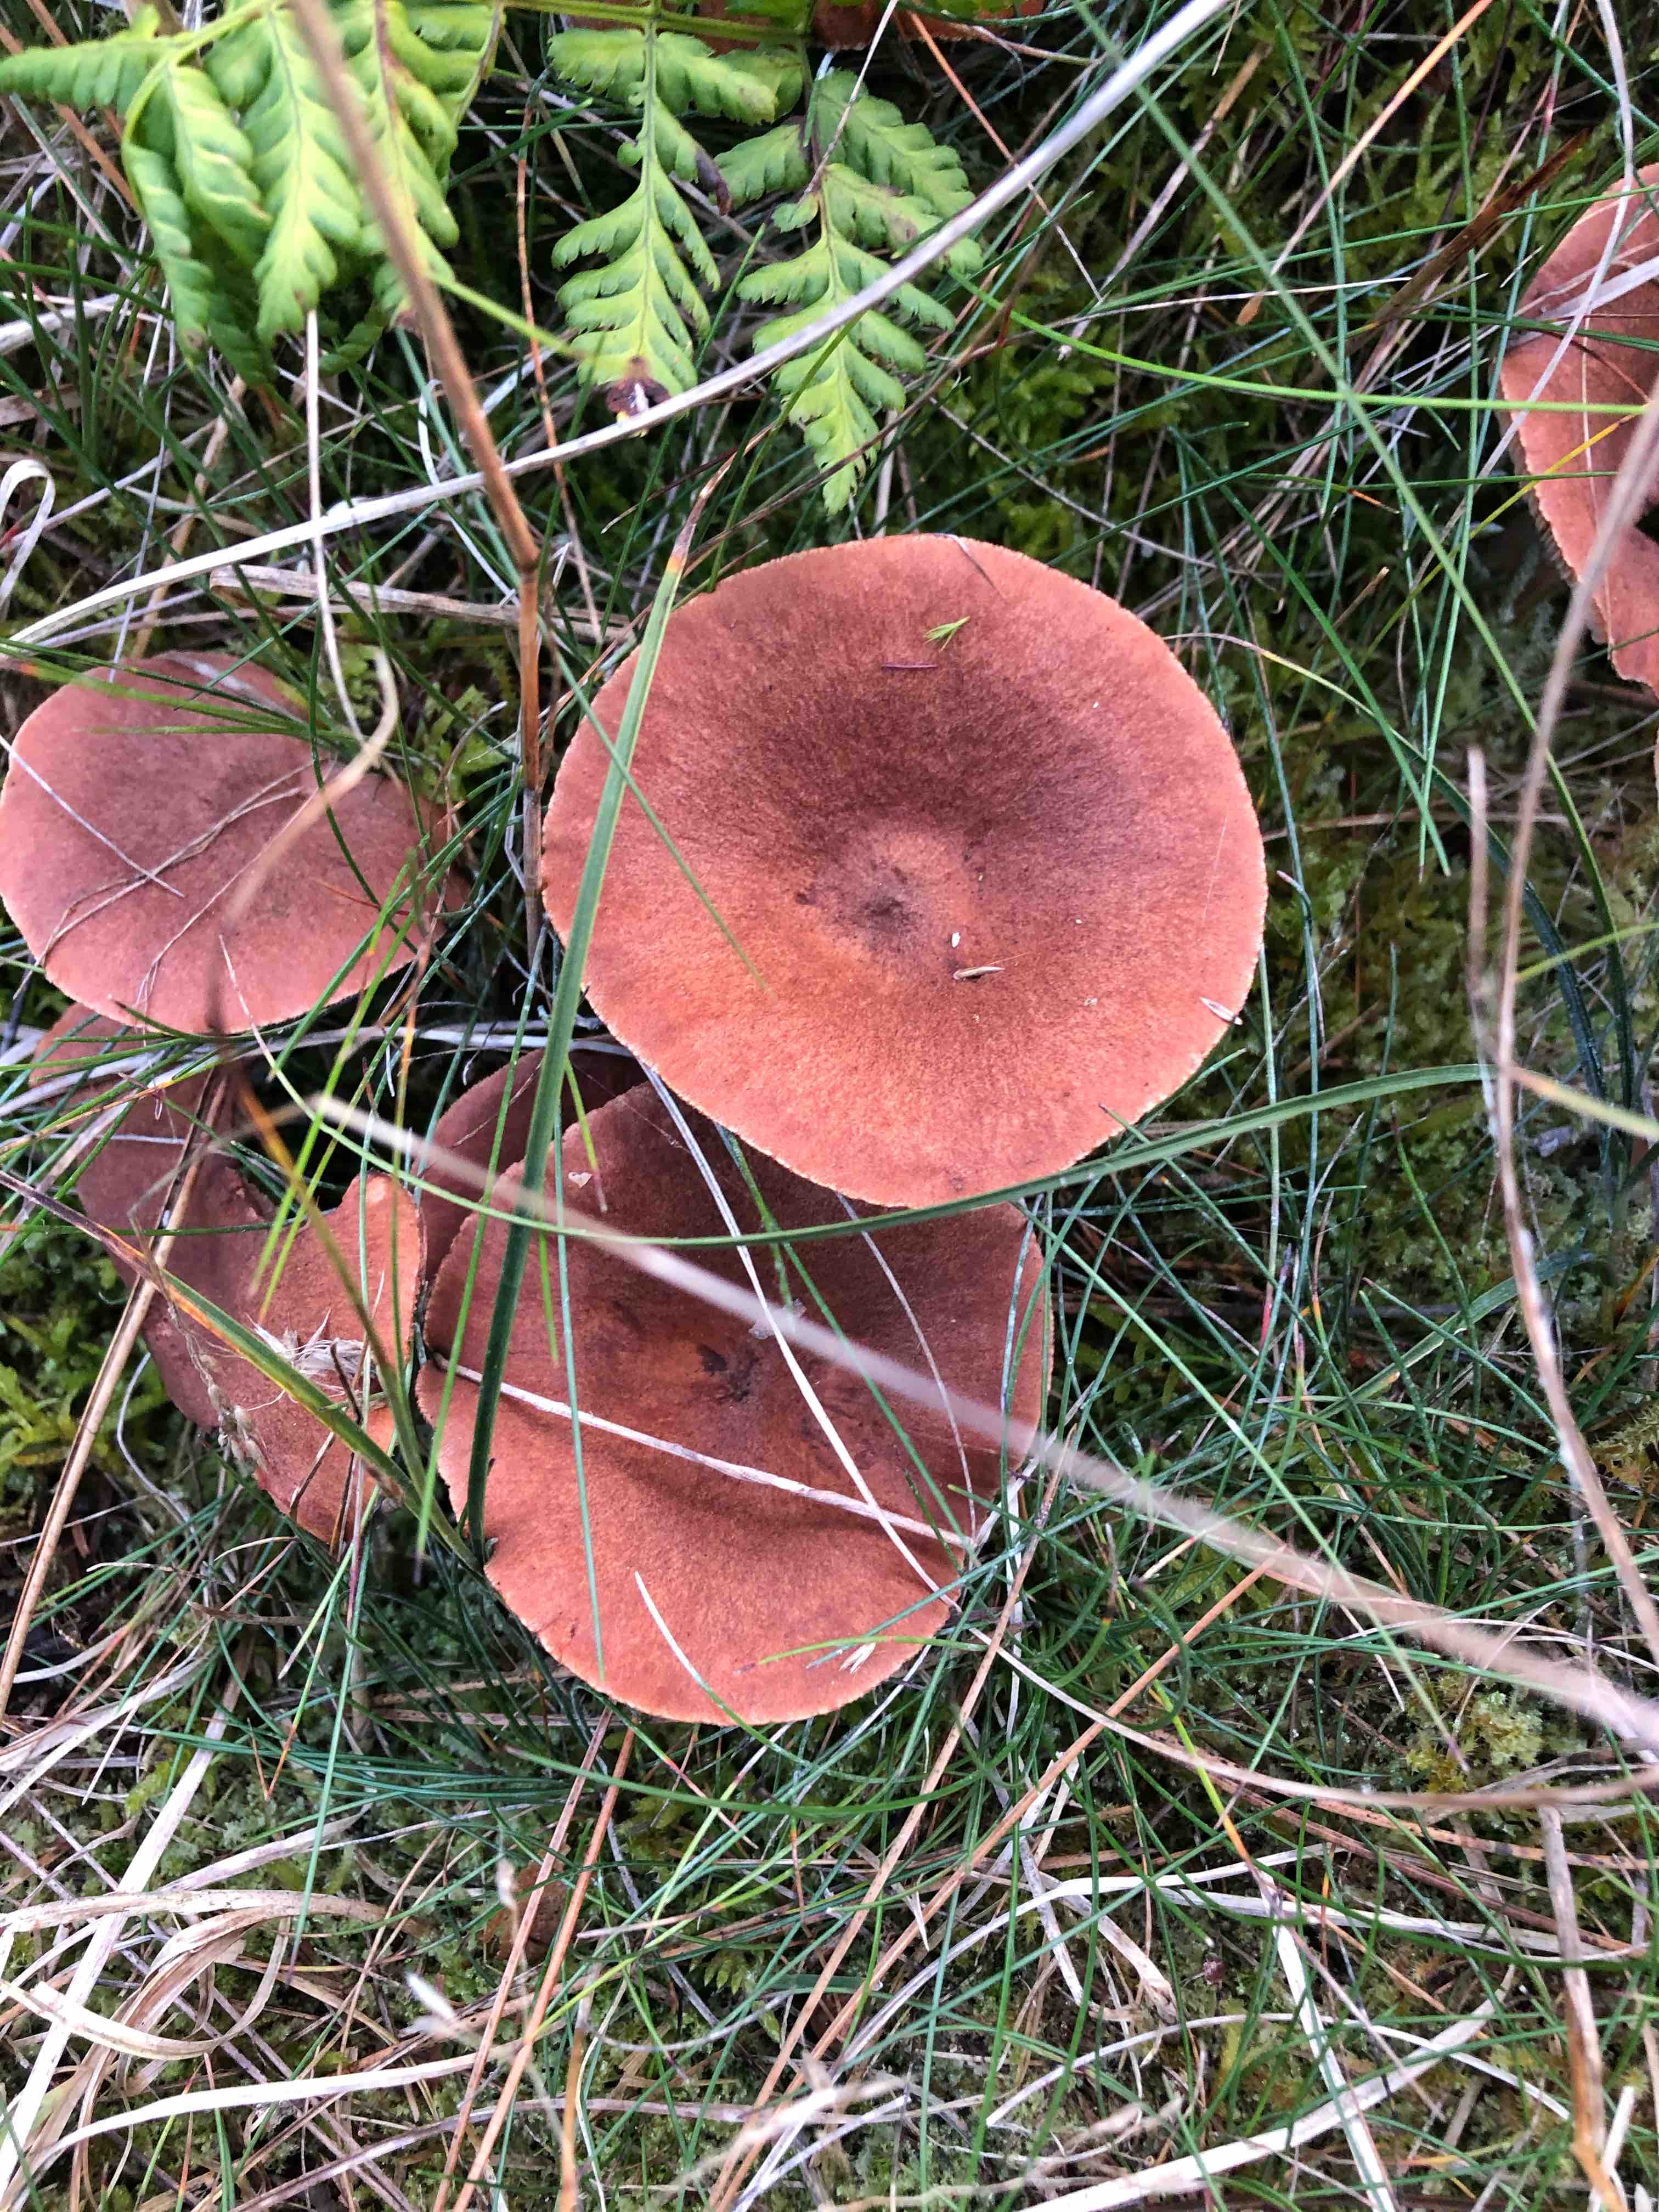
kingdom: Fungi
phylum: Basidiomycota
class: Agaricomycetes
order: Russulales
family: Russulaceae
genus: Lactarius
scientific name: Lactarius rufus
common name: rødbrun mælkehat
